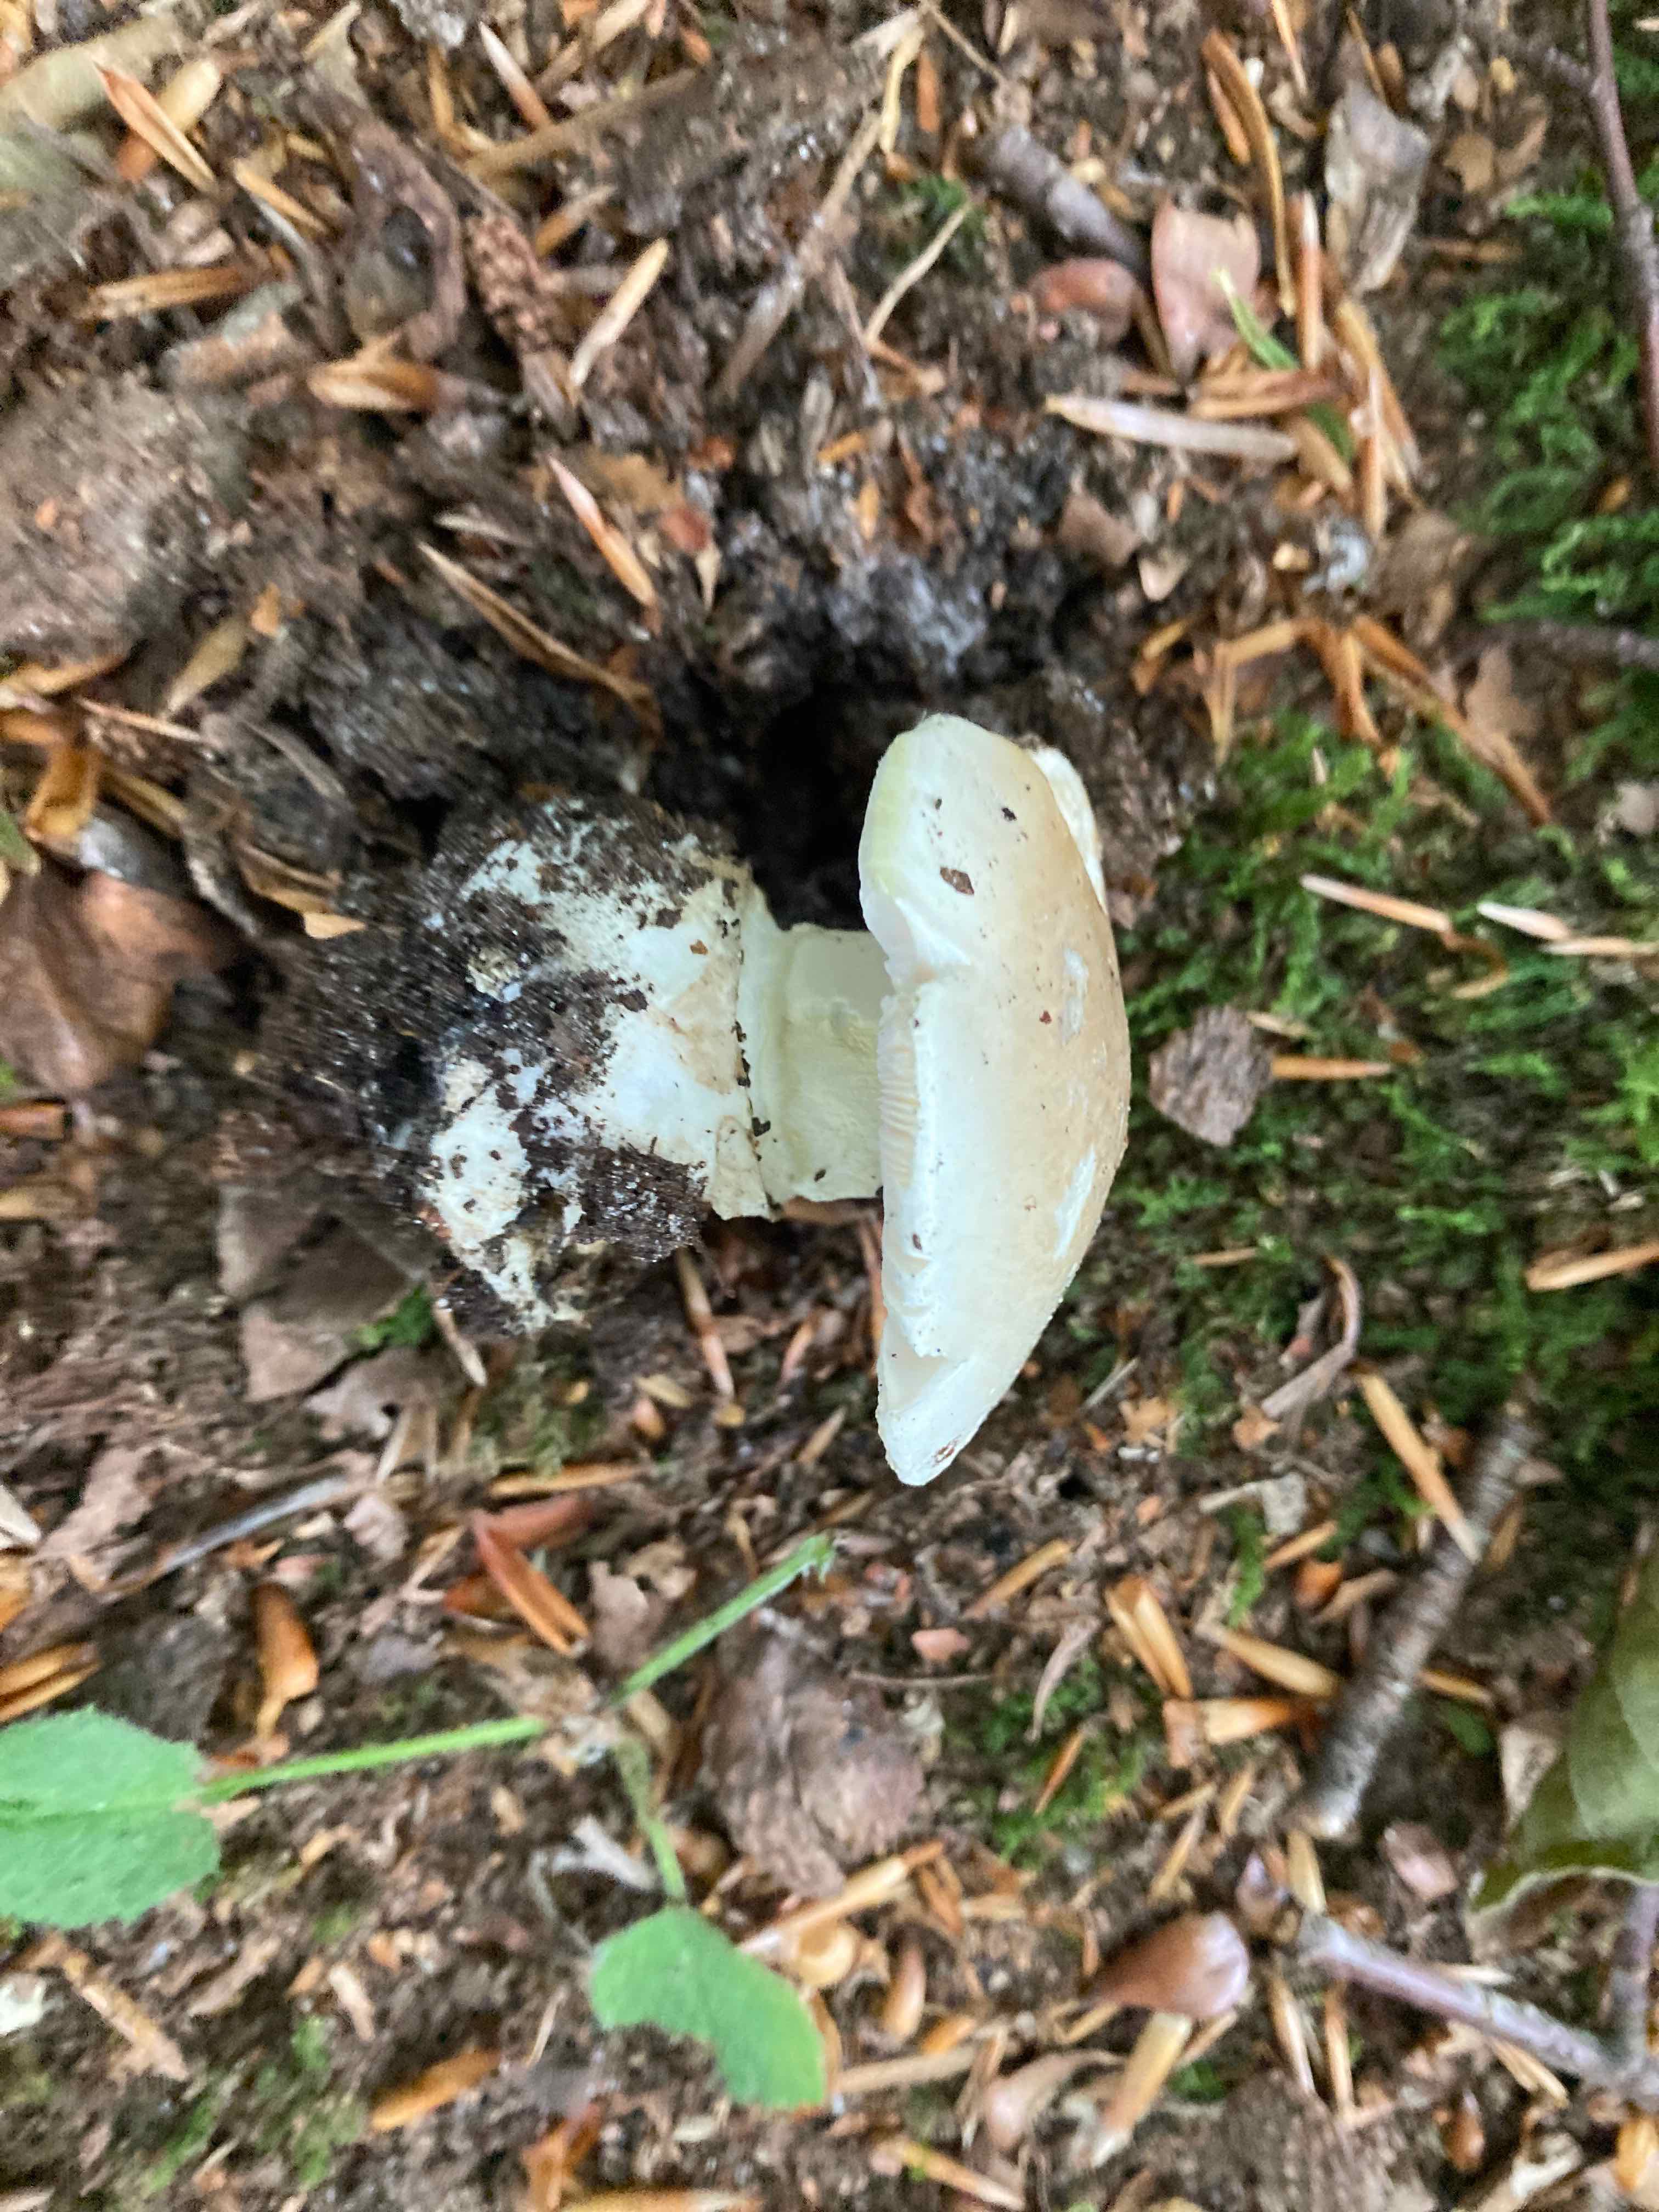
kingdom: Fungi
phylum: Basidiomycota
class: Agaricomycetes
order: Agaricales
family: Amanitaceae
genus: Amanita
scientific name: Amanita phalloides
